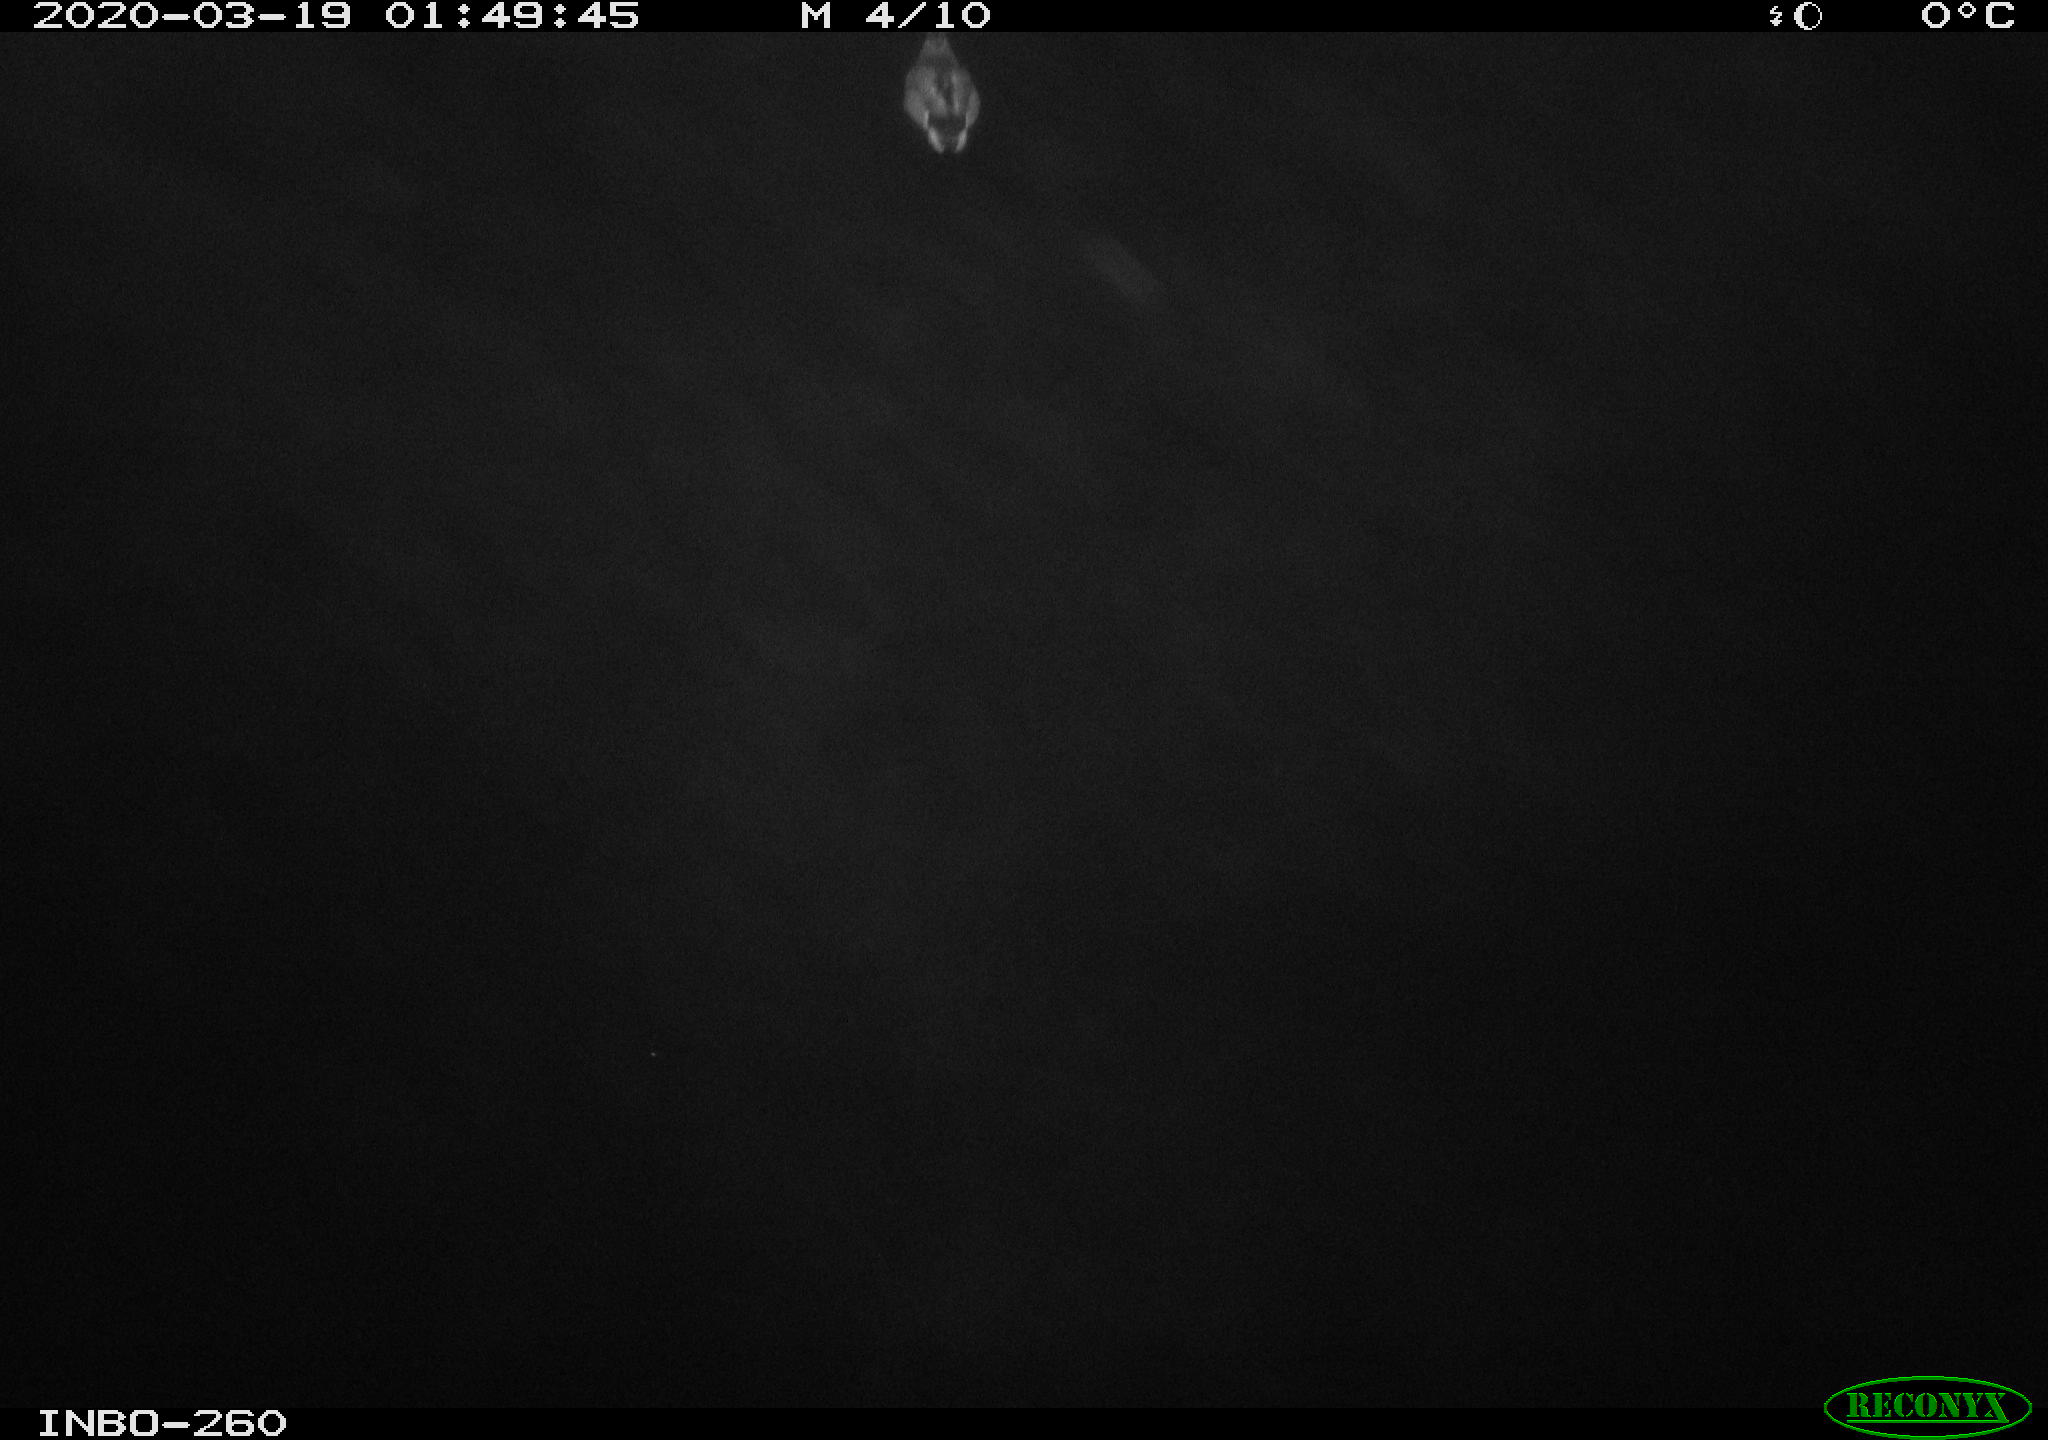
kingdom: Animalia
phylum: Chordata
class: Aves
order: Anseriformes
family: Anatidae
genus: Anas
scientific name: Anas platyrhynchos
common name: Mallard
